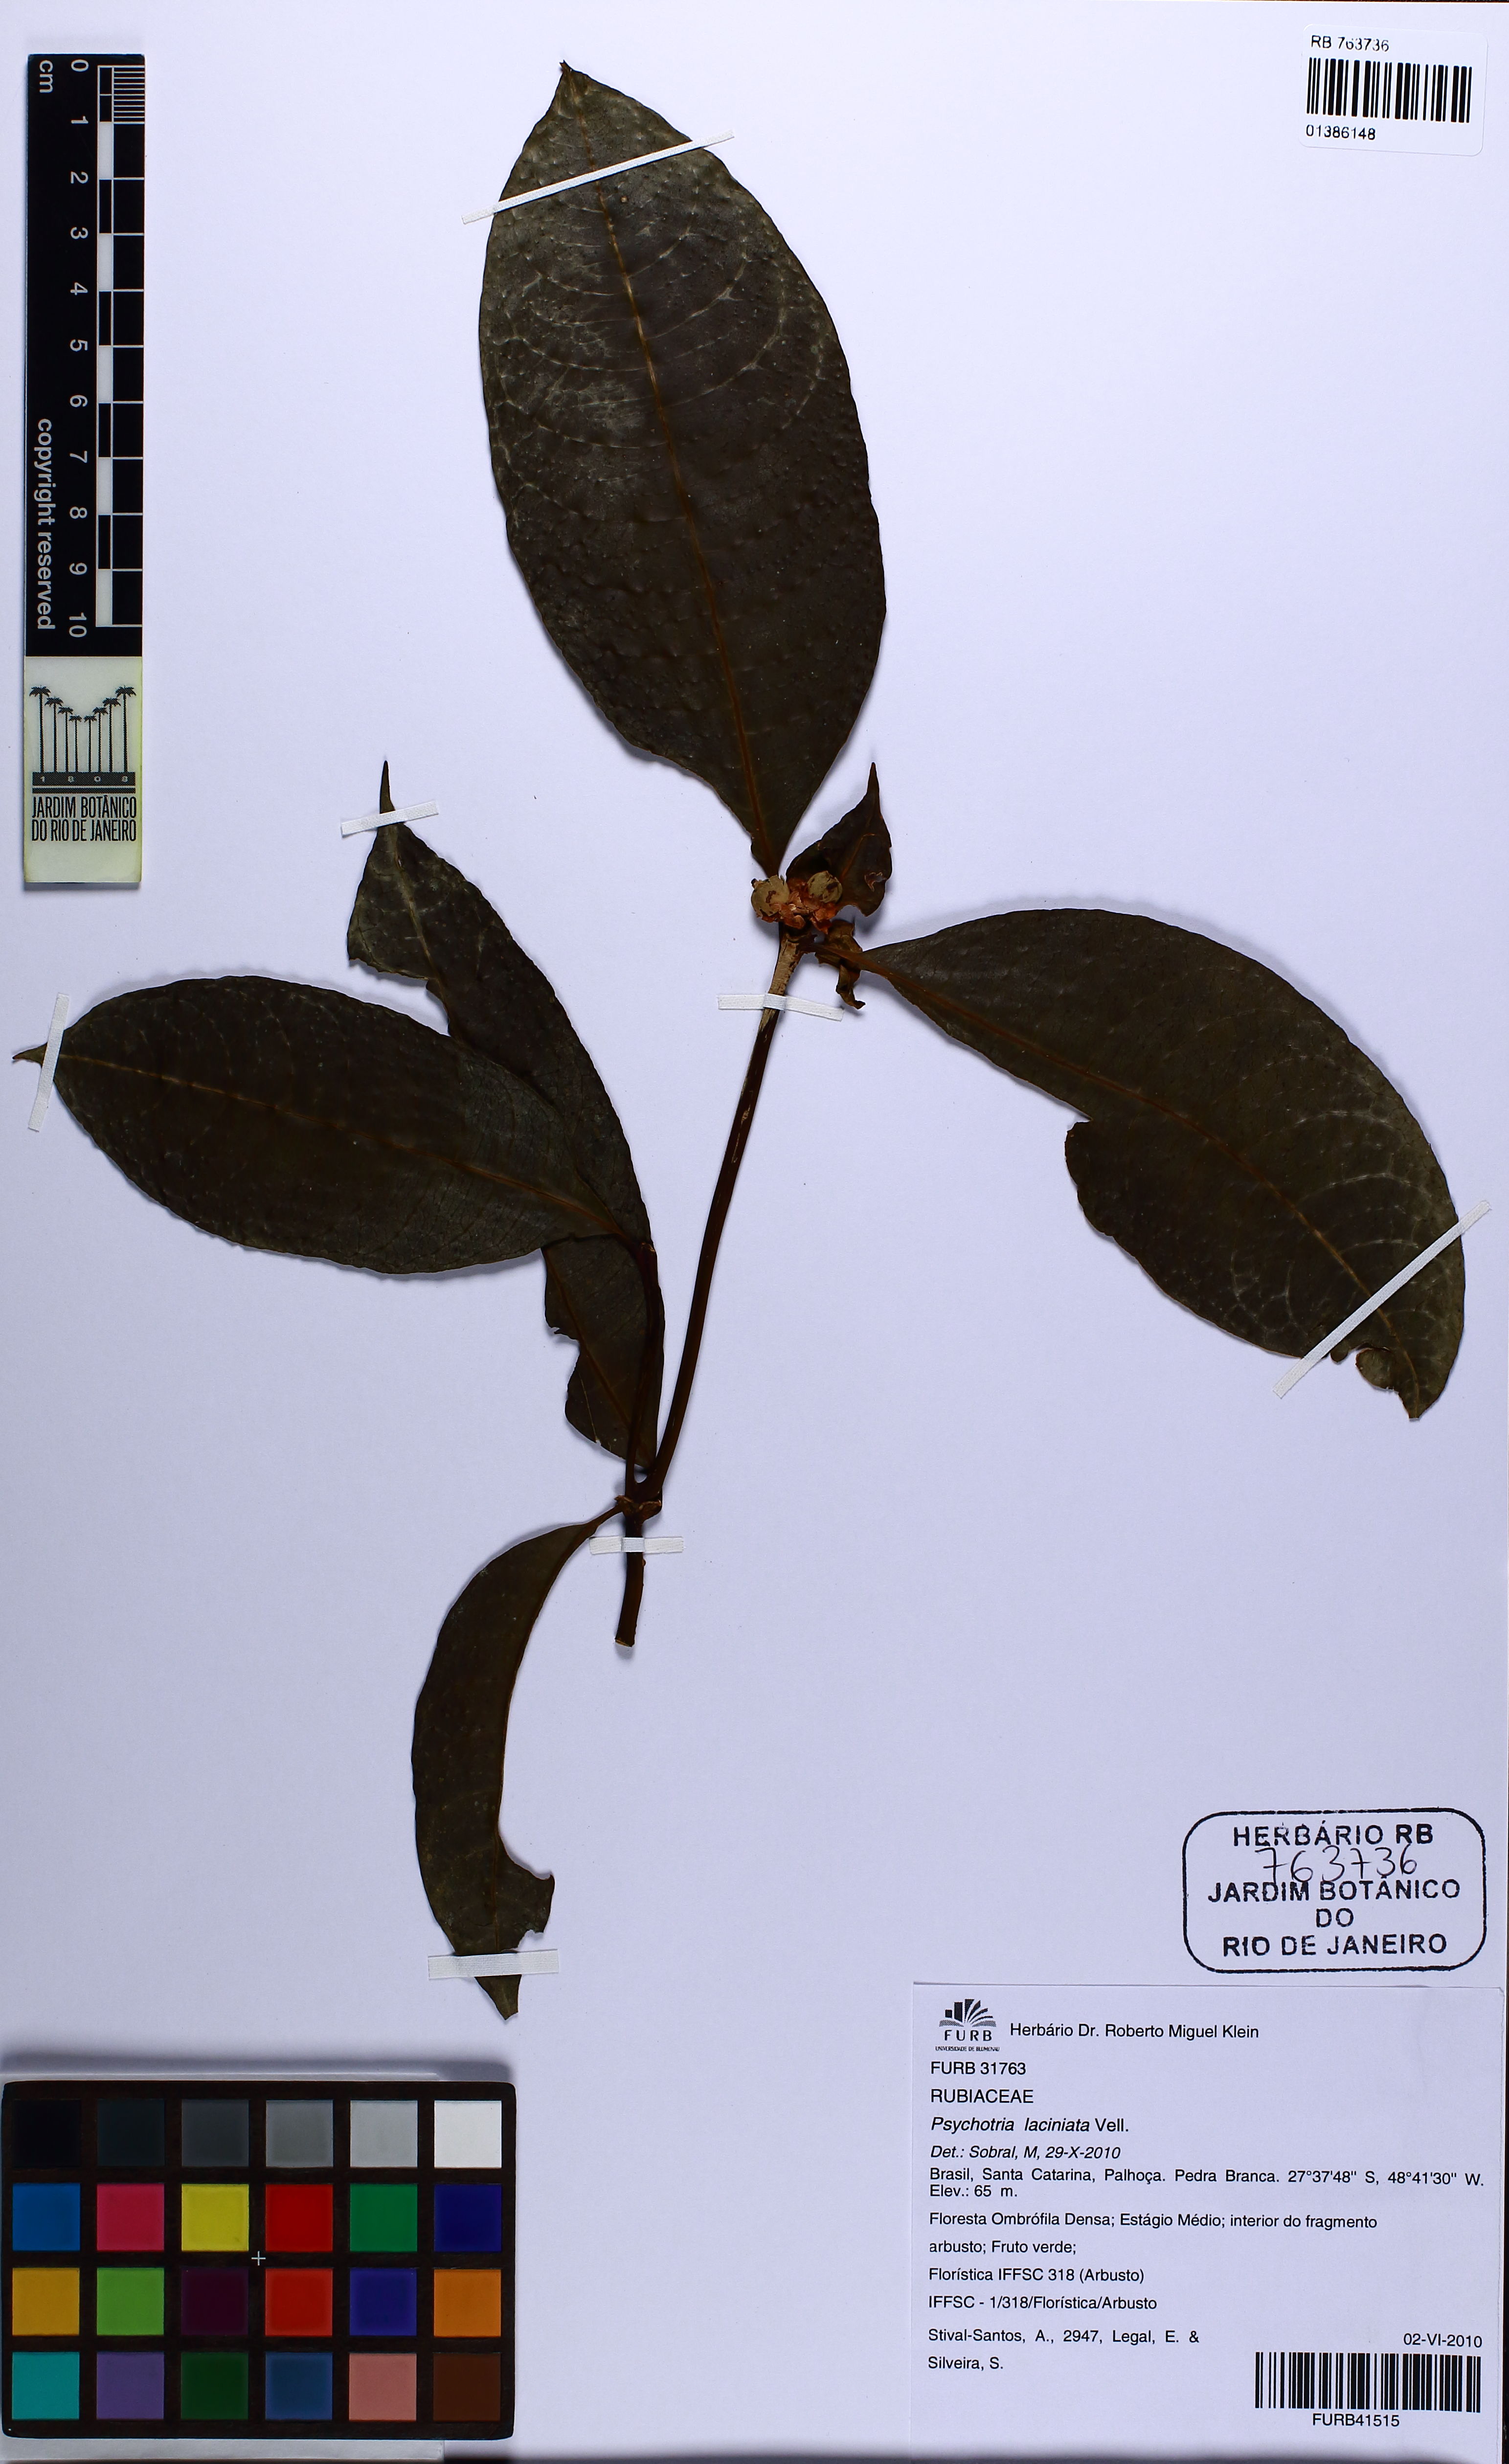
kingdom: Plantae
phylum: Tracheophyta
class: Magnoliopsida
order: Gentianales
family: Rubiaceae
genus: Psychotria
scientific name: Psychotria laciniata
